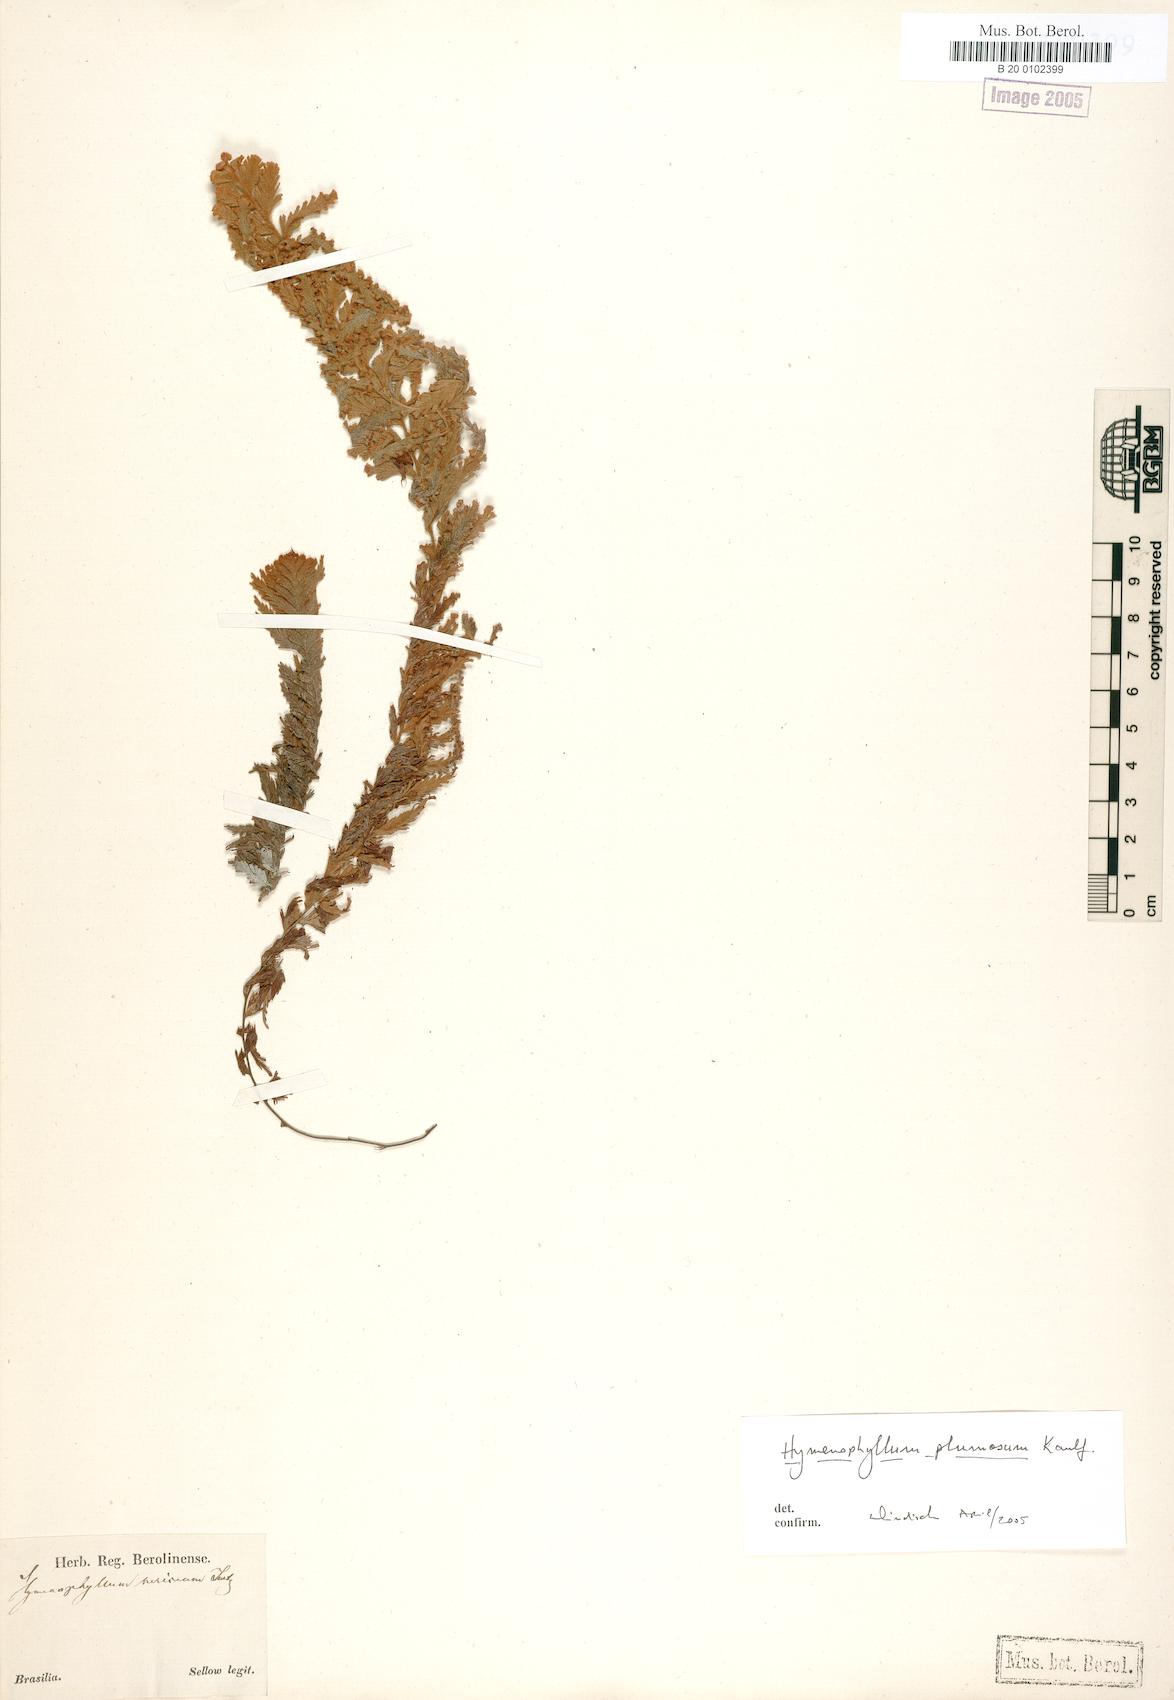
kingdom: Plantae
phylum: Tracheophyta
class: Polypodiopsida
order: Hymenophyllales
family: Hymenophyllaceae
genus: Hymenophyllum
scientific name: Hymenophyllum plumosum
